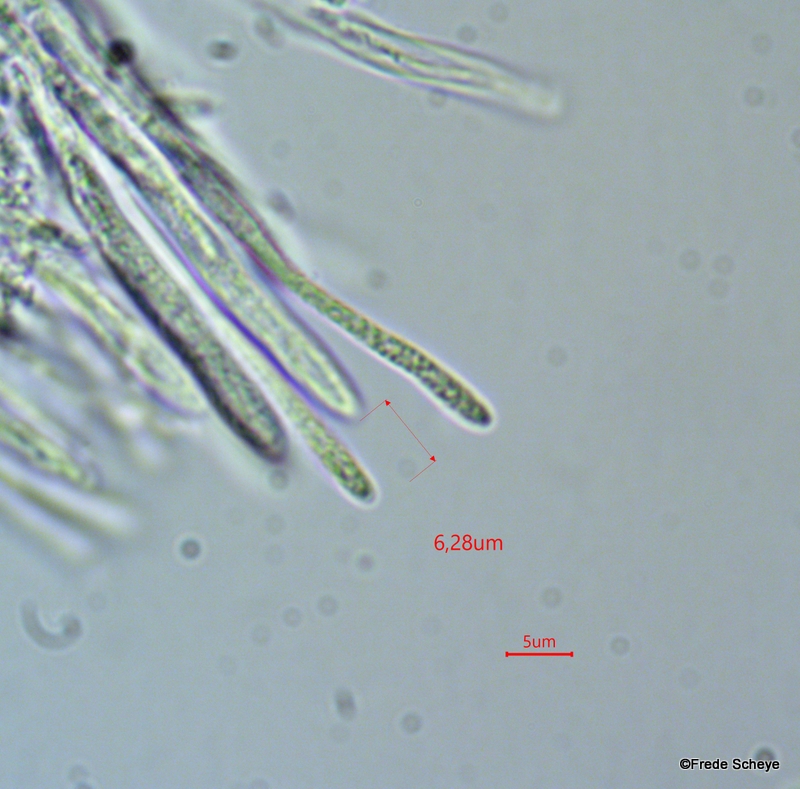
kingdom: Fungi
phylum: Ascomycota
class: Leotiomycetes
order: Helotiales
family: Helotiaceae
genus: Cyathicula
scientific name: Cyathicula cyathoidea
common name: pokal-stilkskive
